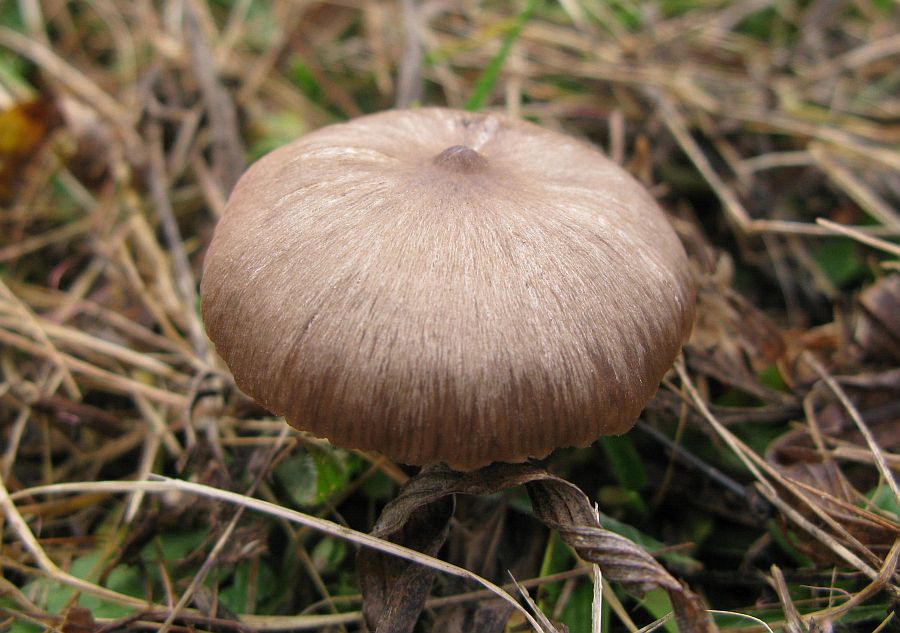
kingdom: Fungi
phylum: Basidiomycota
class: Agaricomycetes
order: Agaricales
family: Entolomataceae
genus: Entoloma
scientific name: Entoloma sericeum
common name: silkeglinsende rødblad
